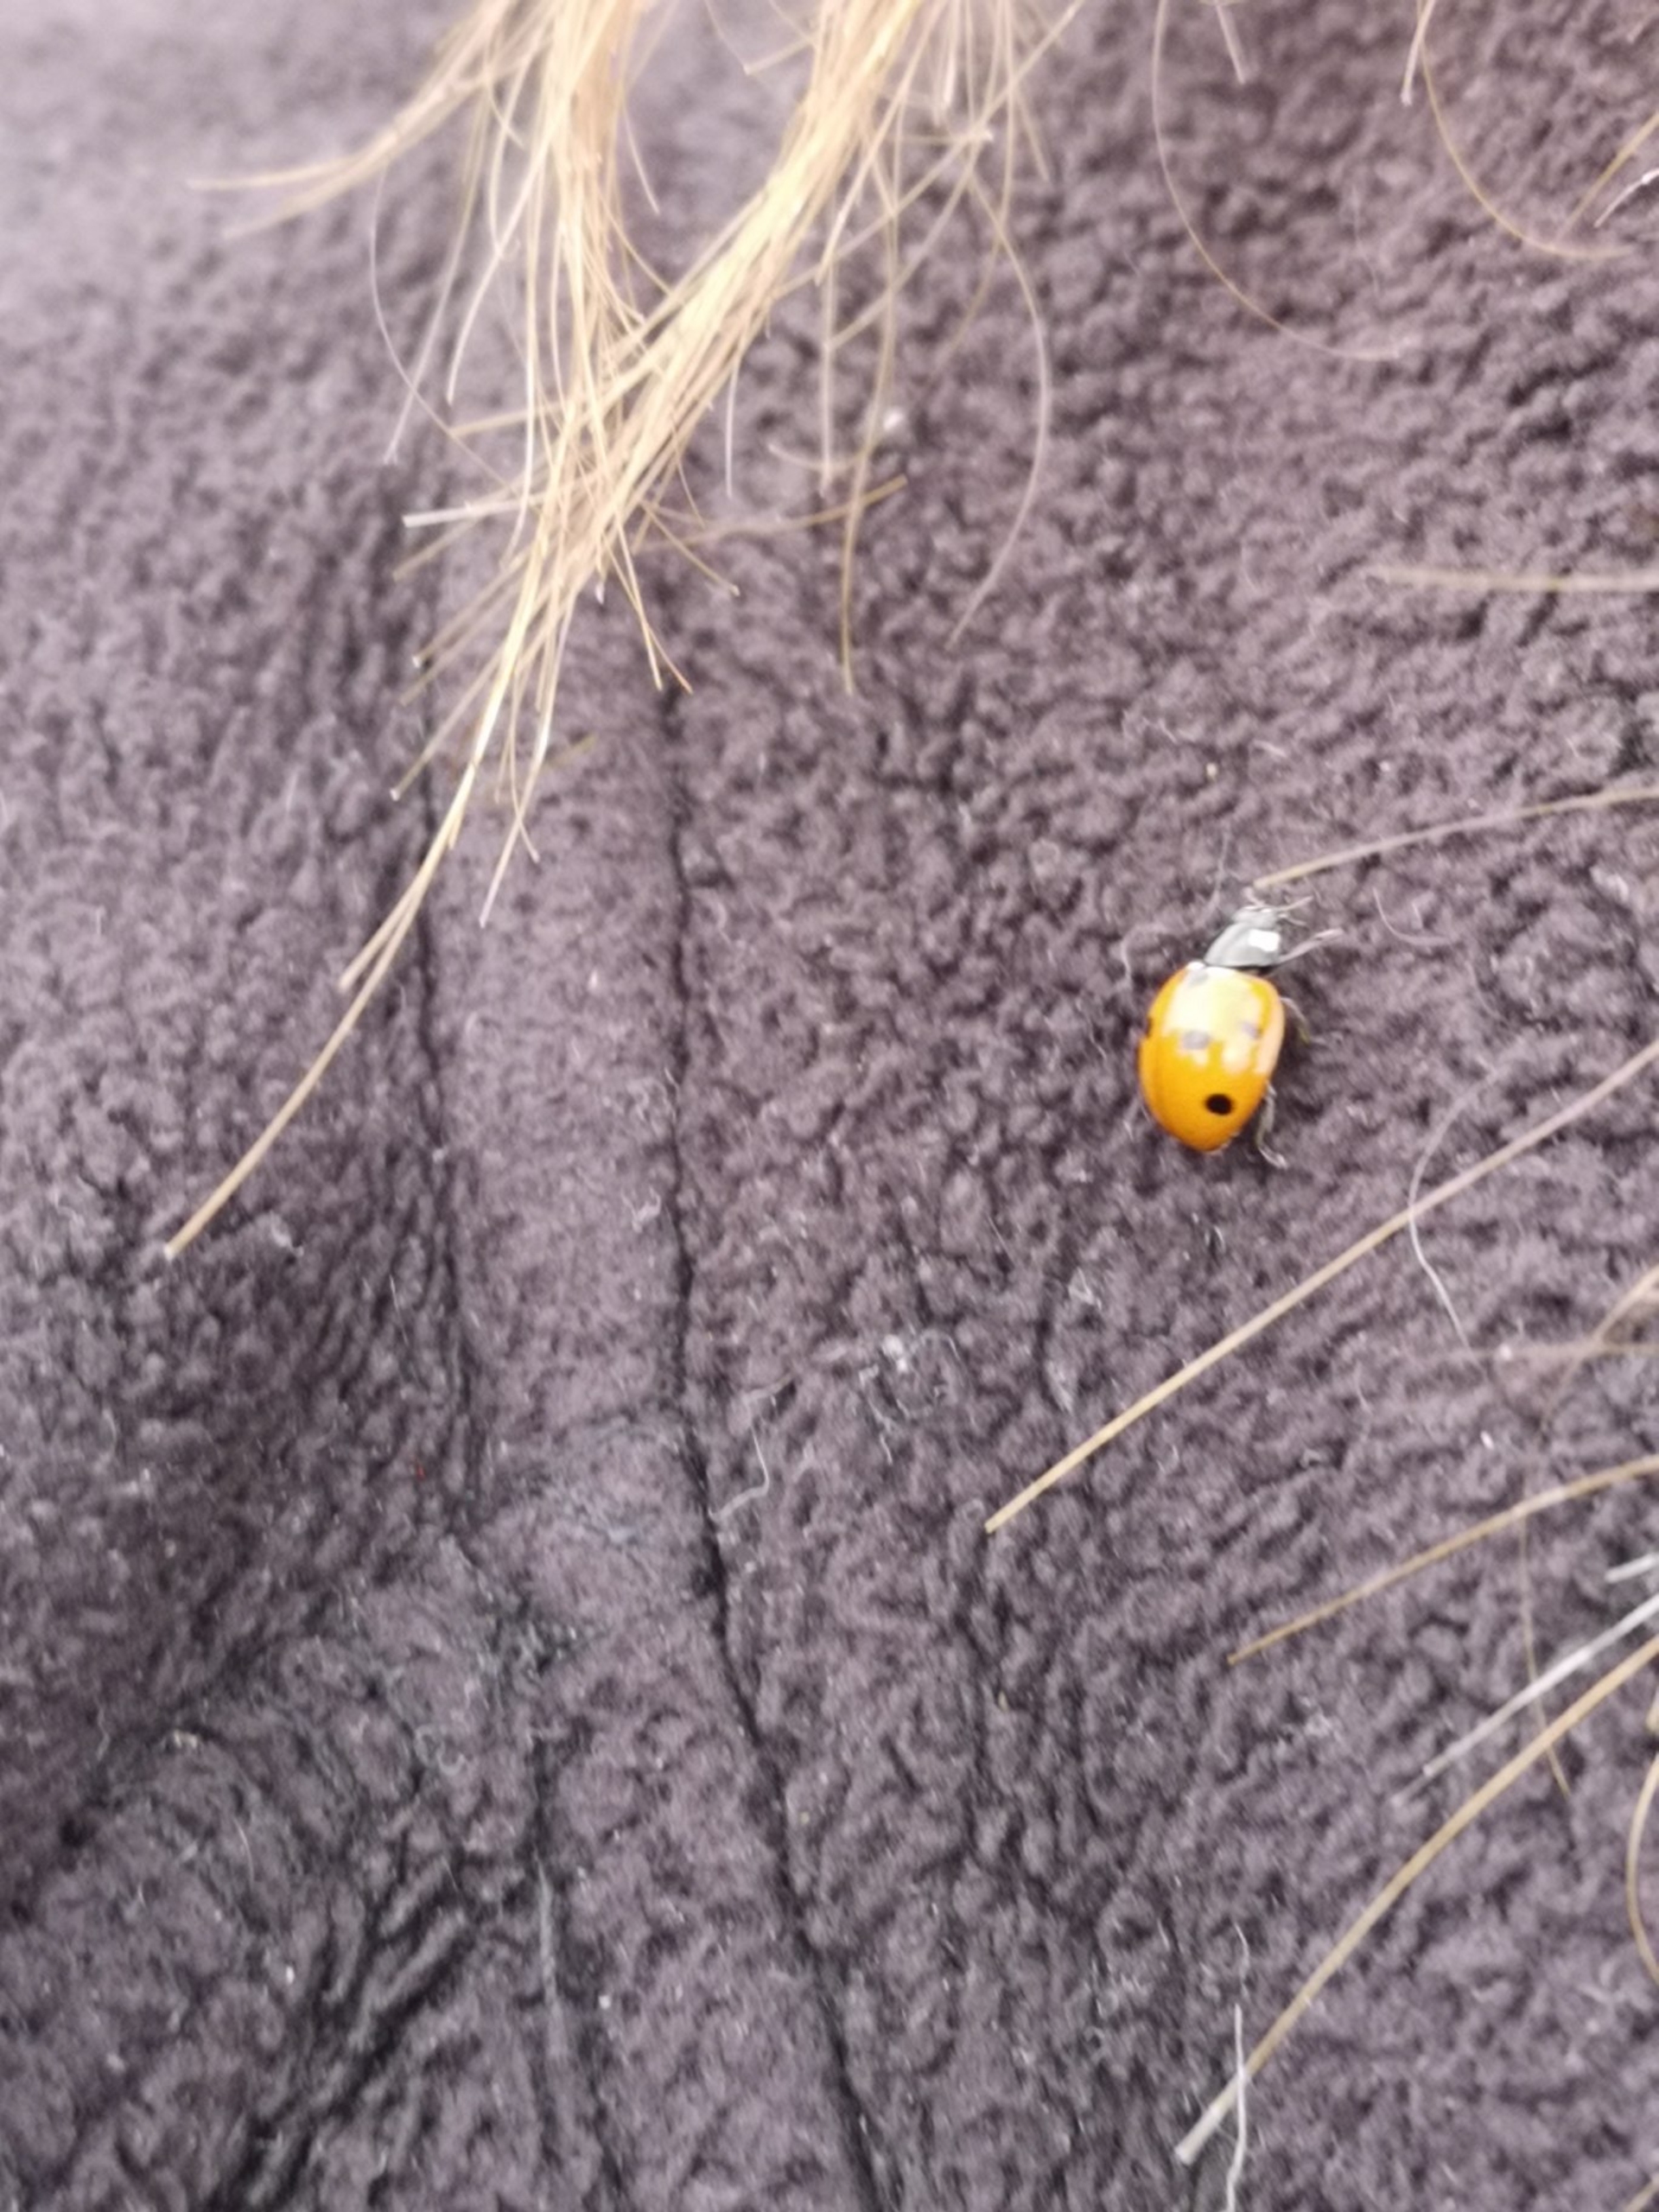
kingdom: Animalia
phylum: Arthropoda
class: Insecta
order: Coleoptera
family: Coccinellidae
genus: Coccinella
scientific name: Coccinella septempunctata
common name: Syvplettet mariehøne
